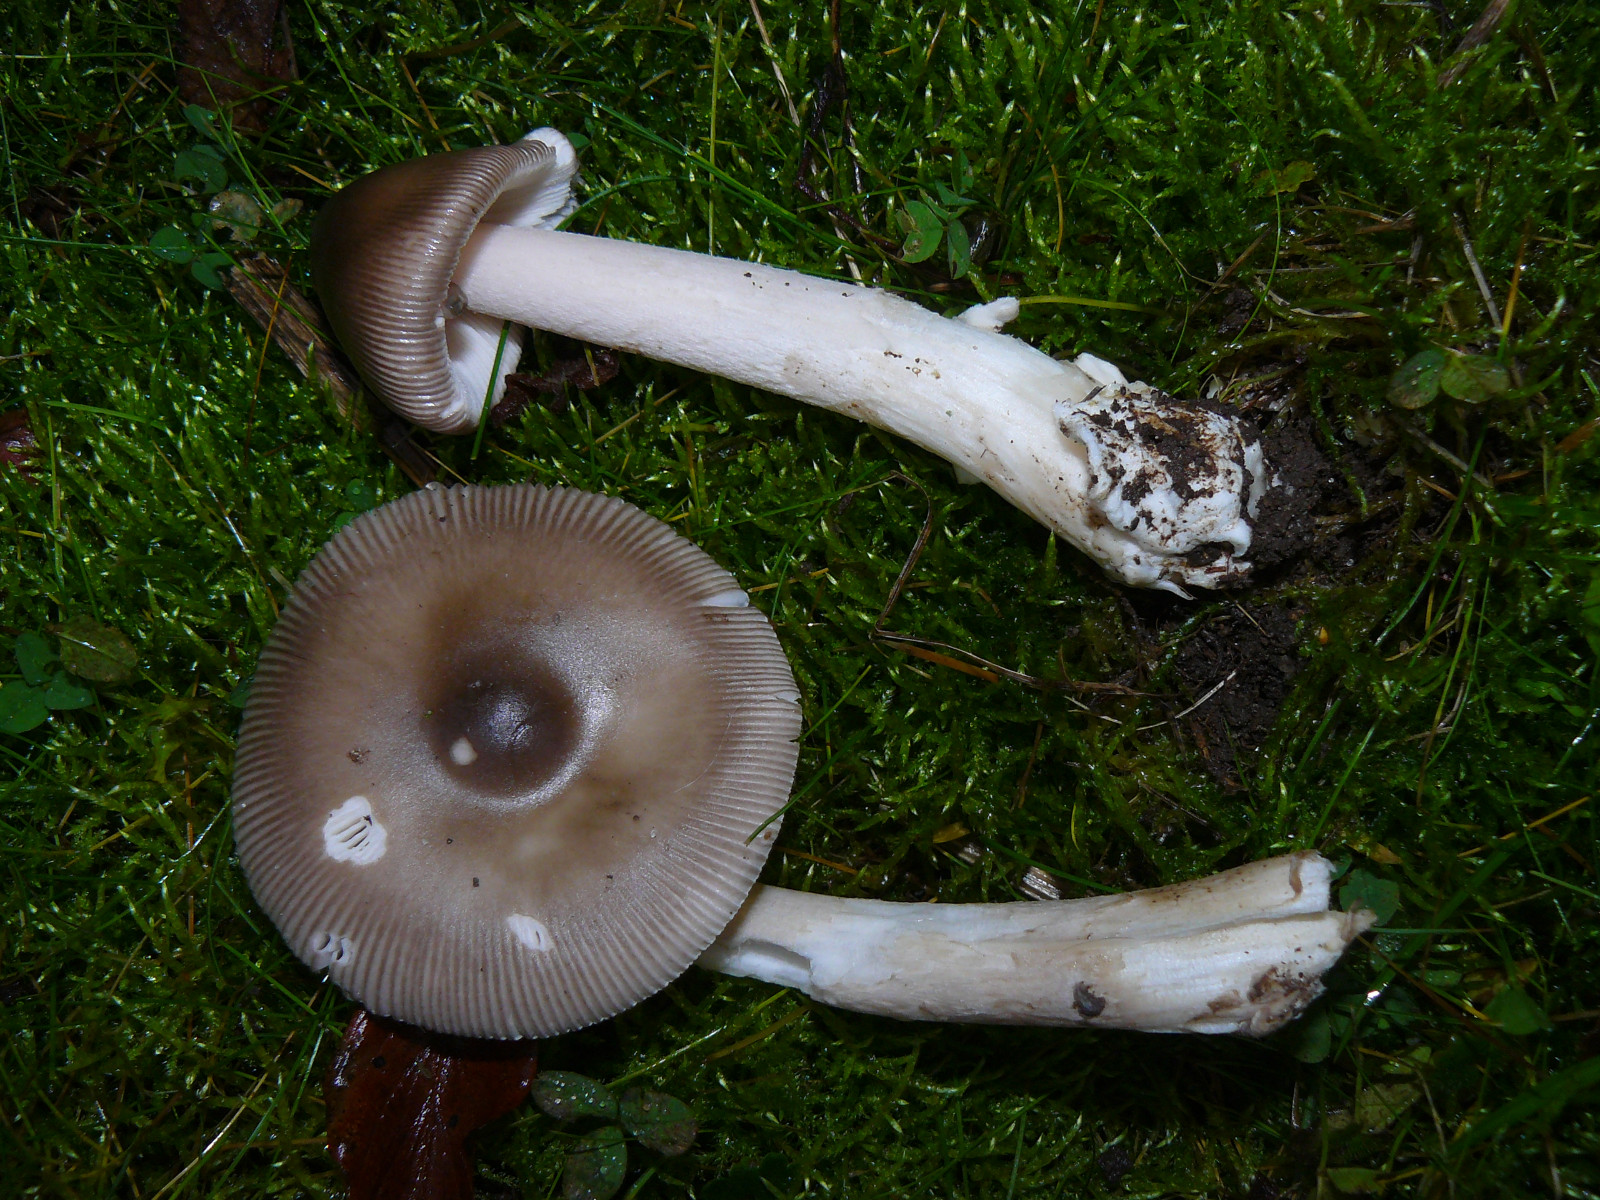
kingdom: Fungi
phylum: Basidiomycota
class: Agaricomycetes
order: Agaricales
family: Amanitaceae
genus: Amanita
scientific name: Amanita
